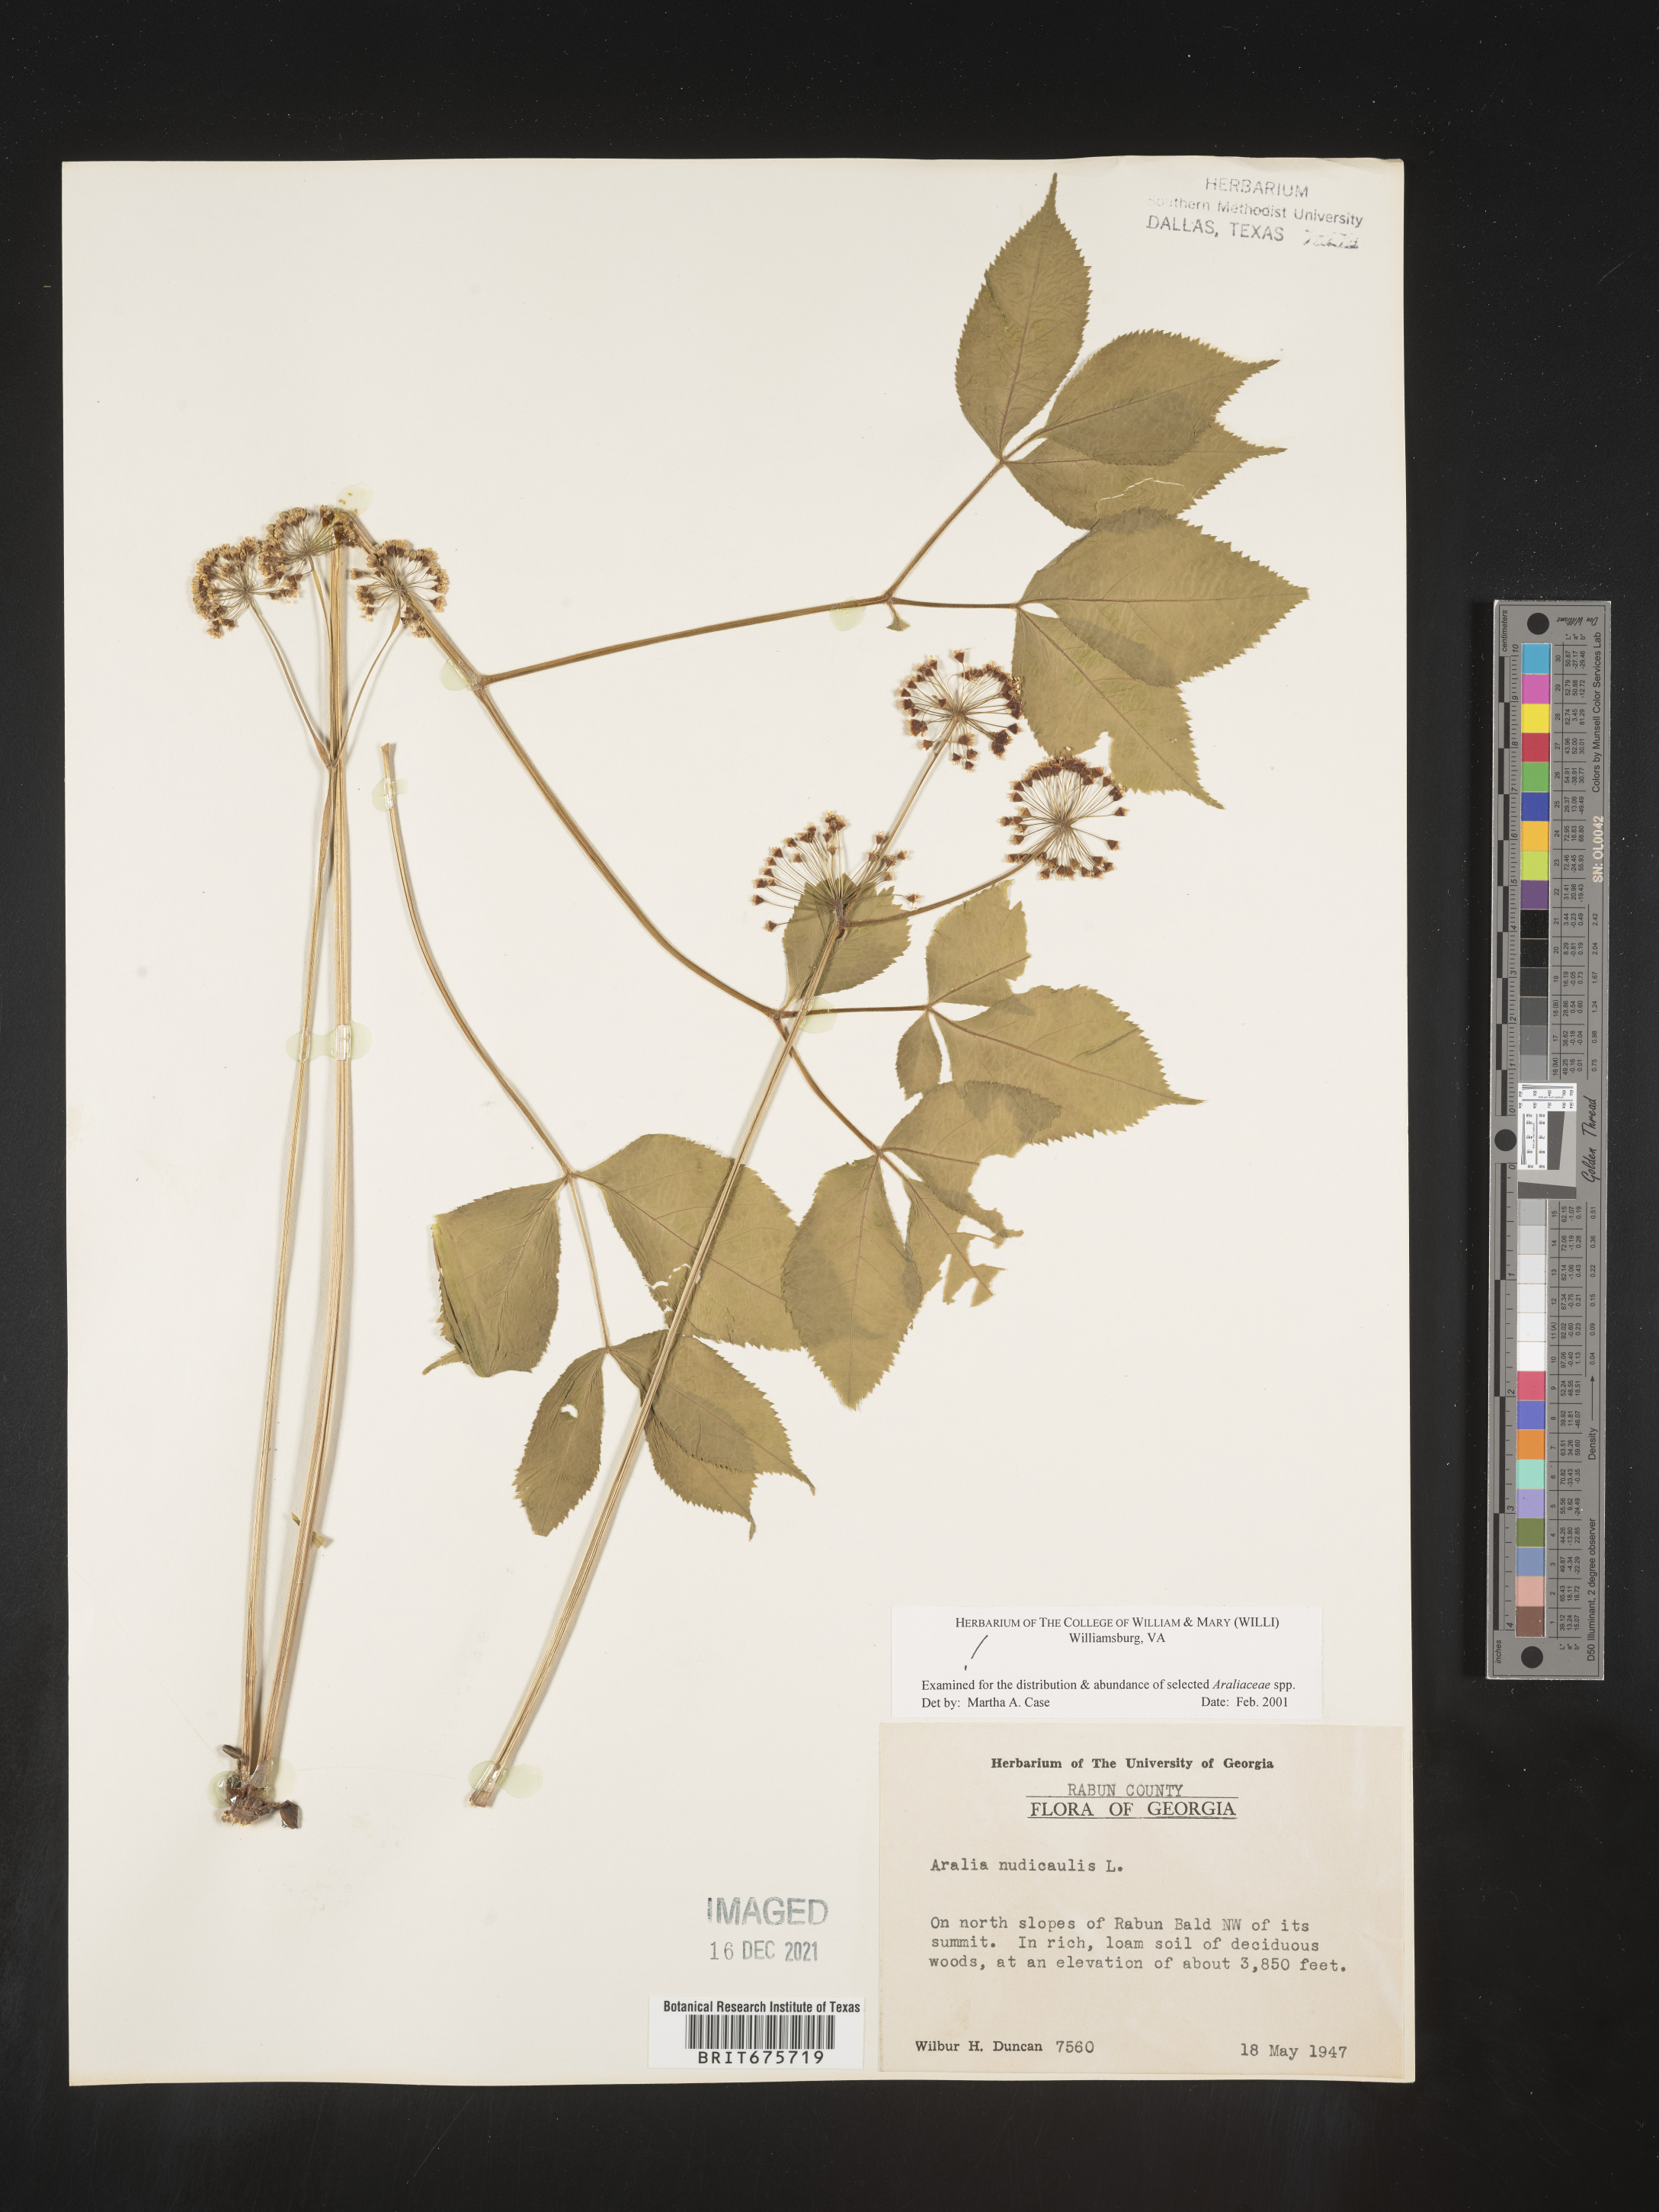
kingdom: Plantae
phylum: Tracheophyta
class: Magnoliopsida
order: Apiales
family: Araliaceae
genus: Aralia
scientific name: Aralia nudicaulis
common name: Wild sarsaparilla
